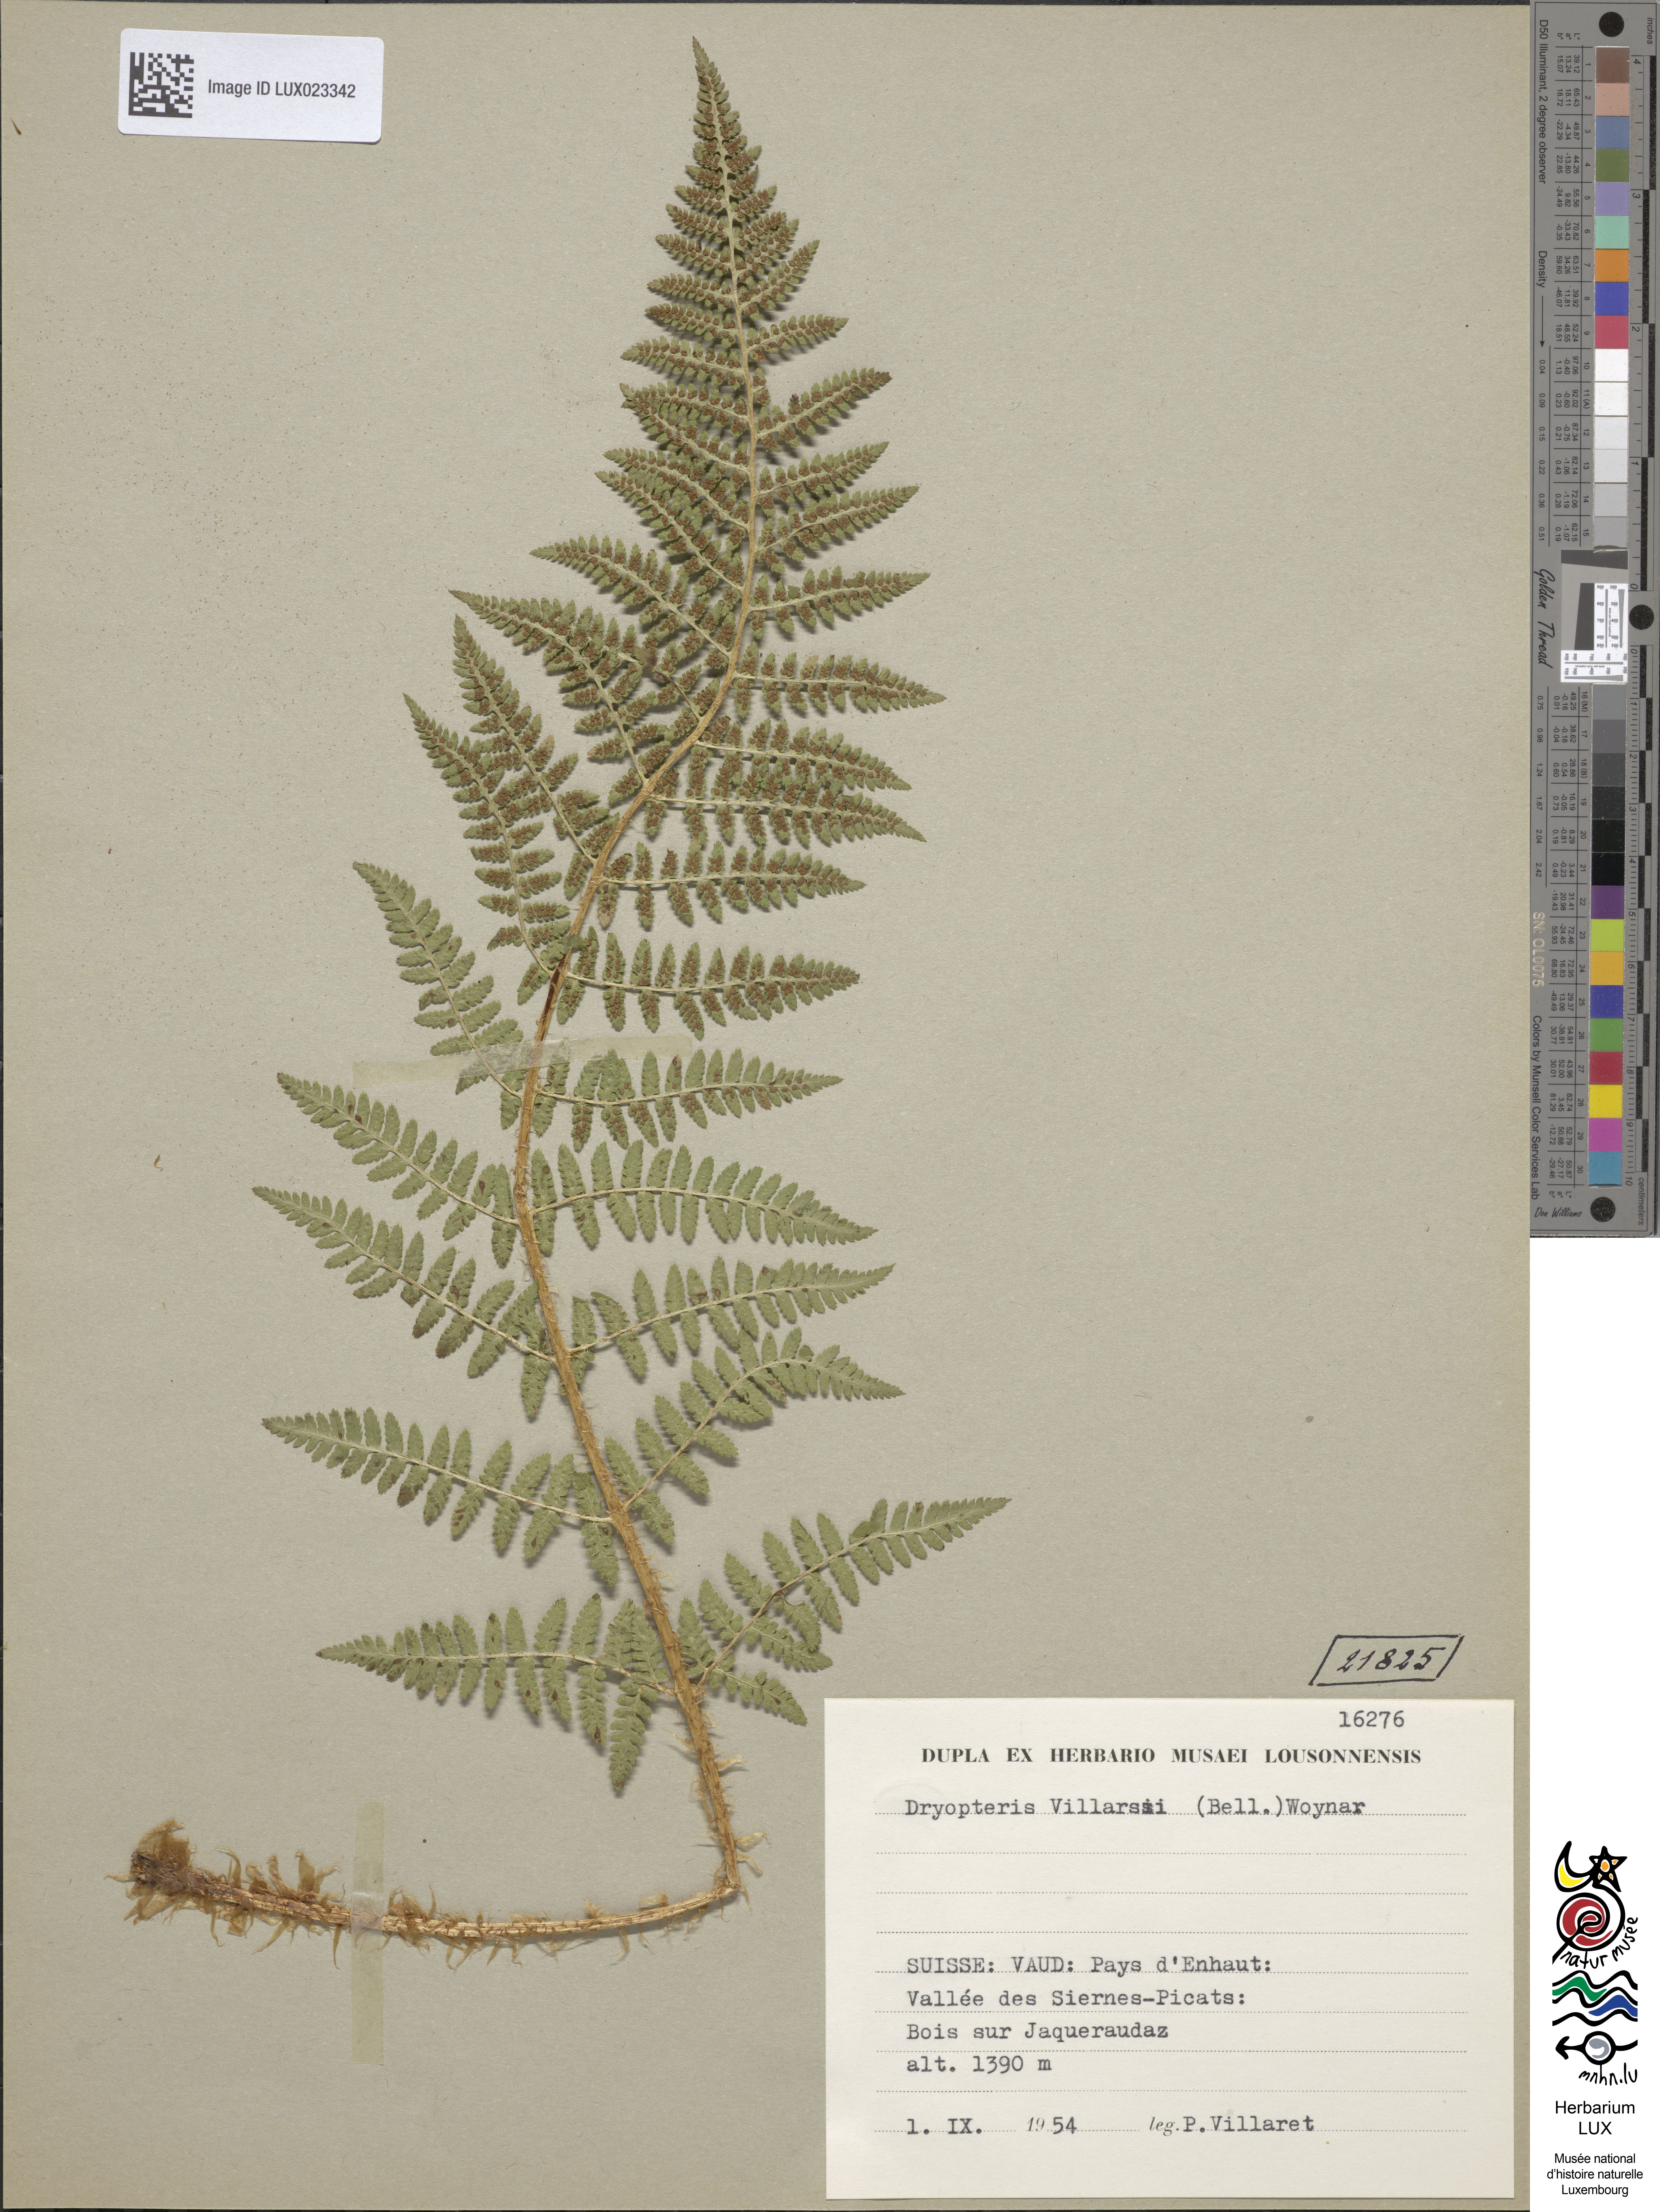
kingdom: Plantae
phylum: Tracheophyta
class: Polypodiopsida
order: Polypodiales
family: Dryopteridaceae
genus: Dryopteris
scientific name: Dryopteris villarii
